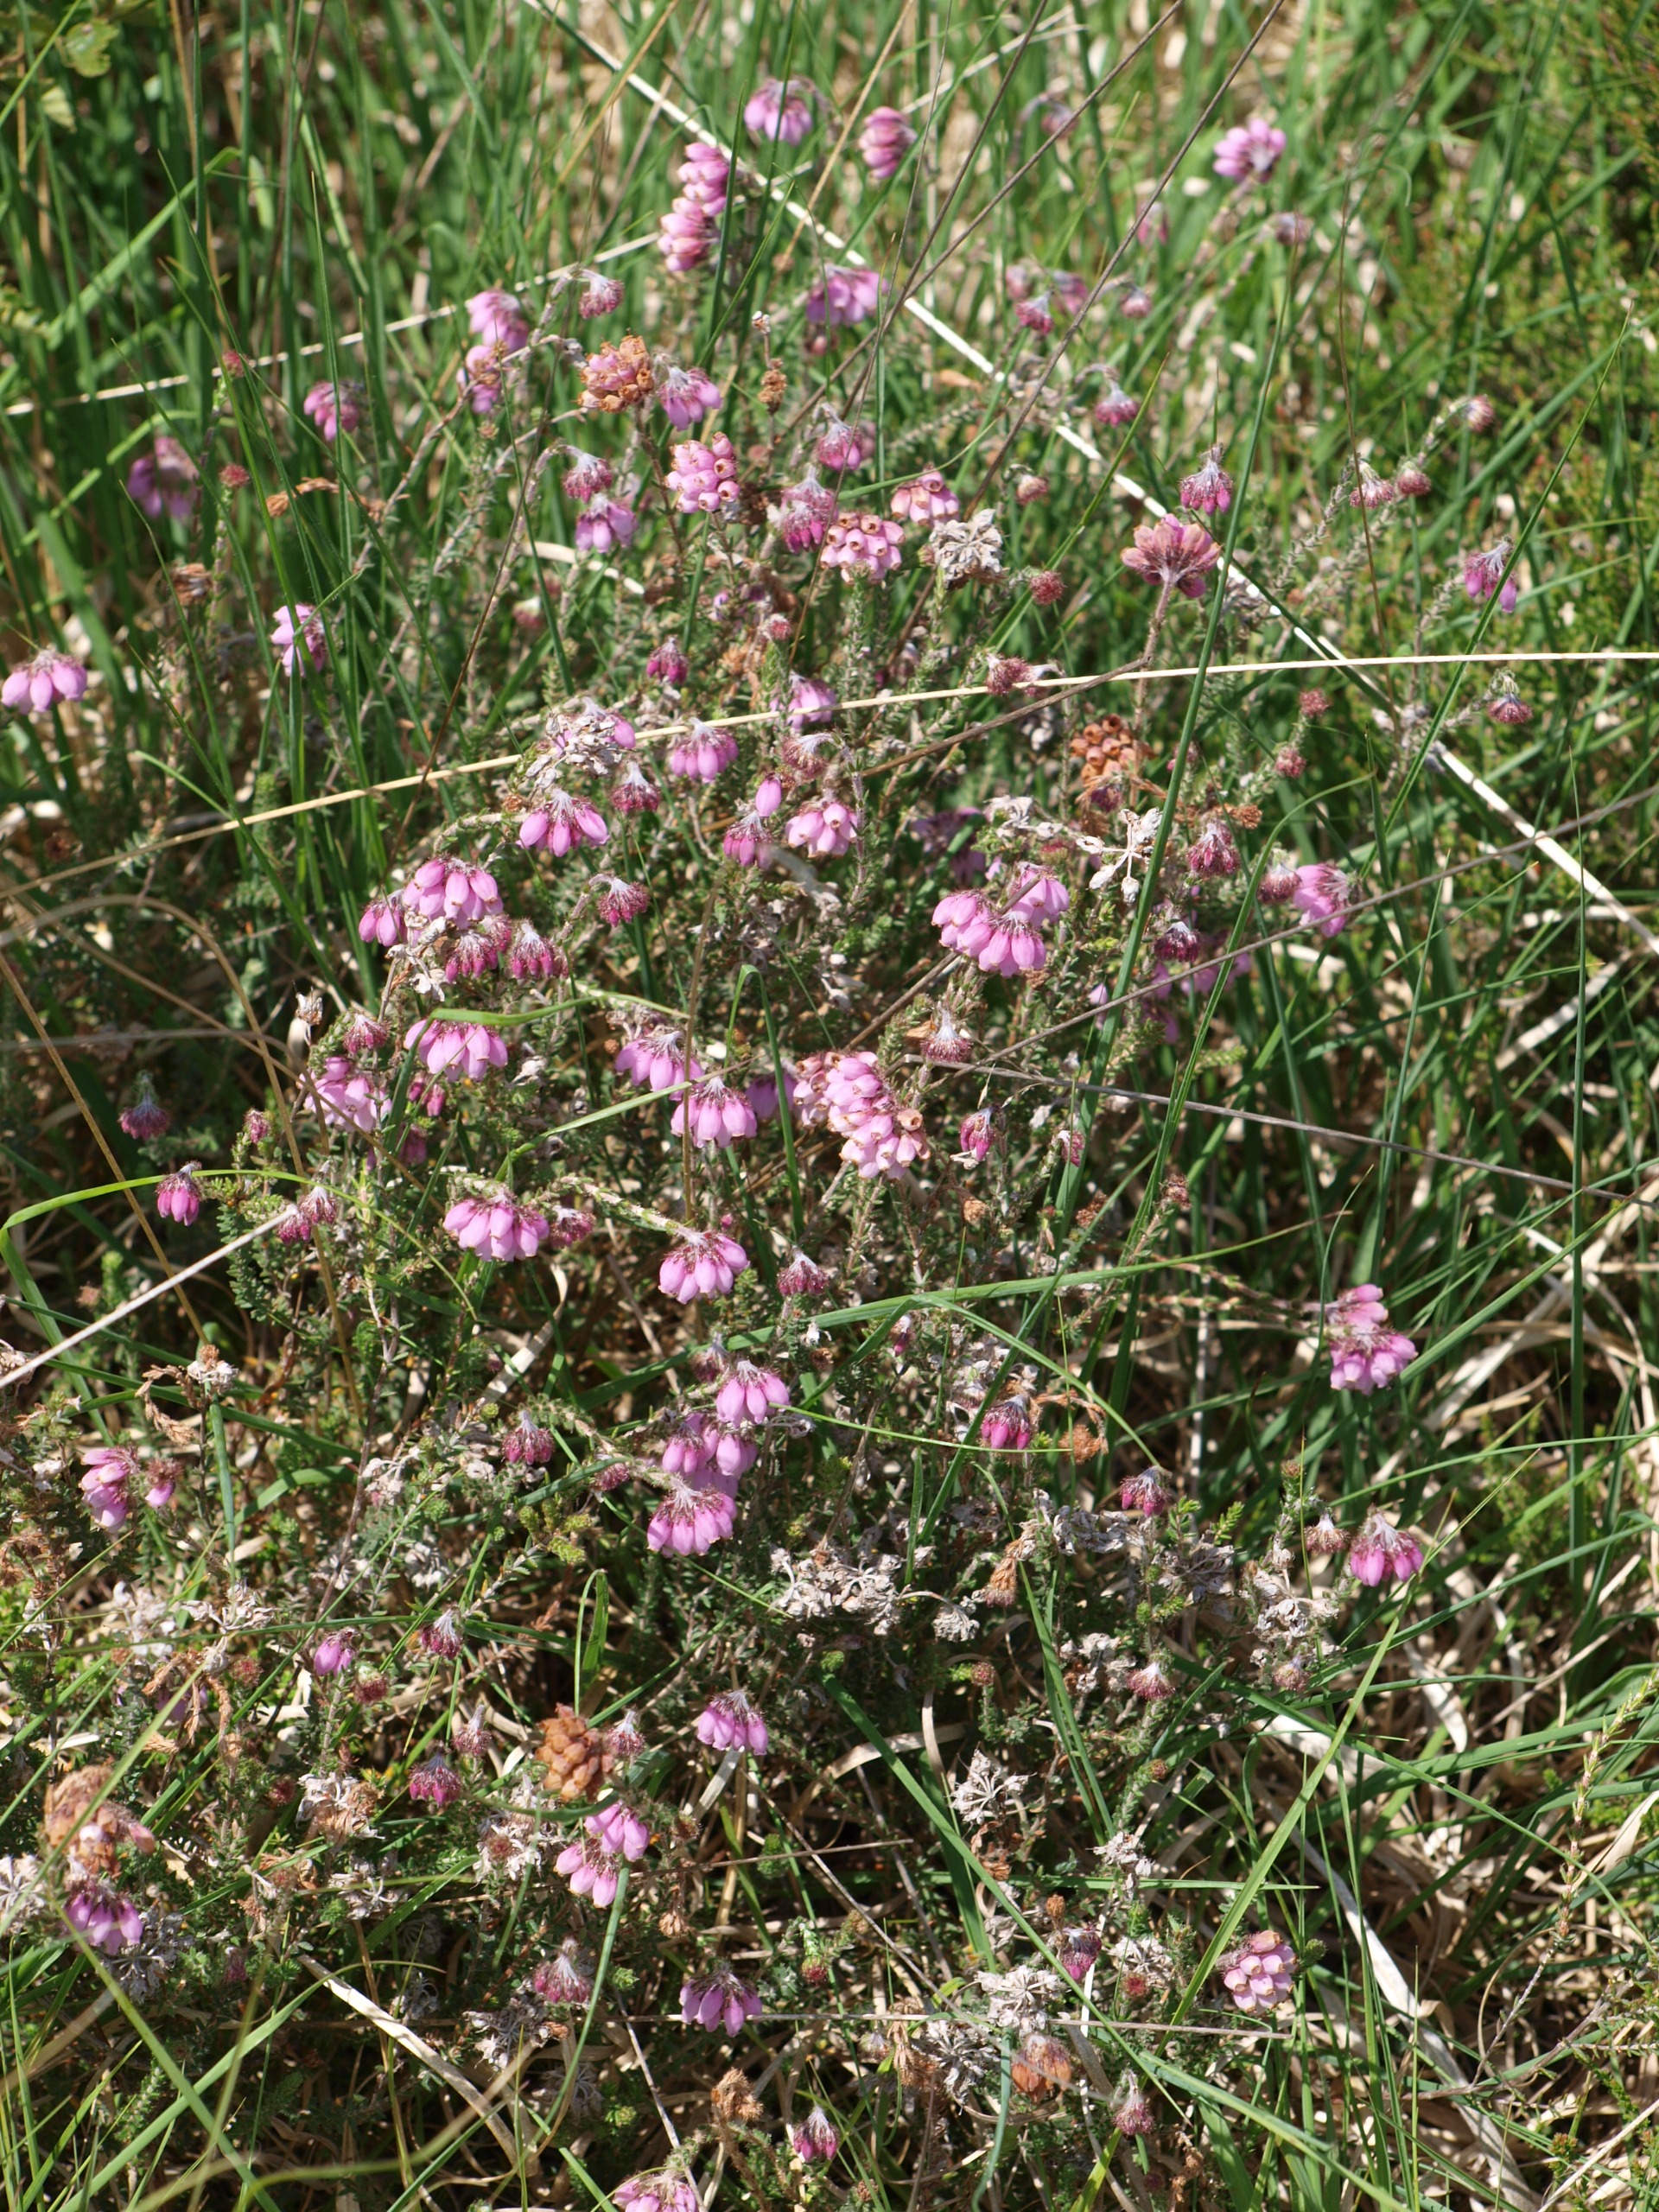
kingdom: Plantae
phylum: Tracheophyta
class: Magnoliopsida
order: Ericales
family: Ericaceae
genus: Erica
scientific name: Erica tetralix
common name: Klokkelyng
